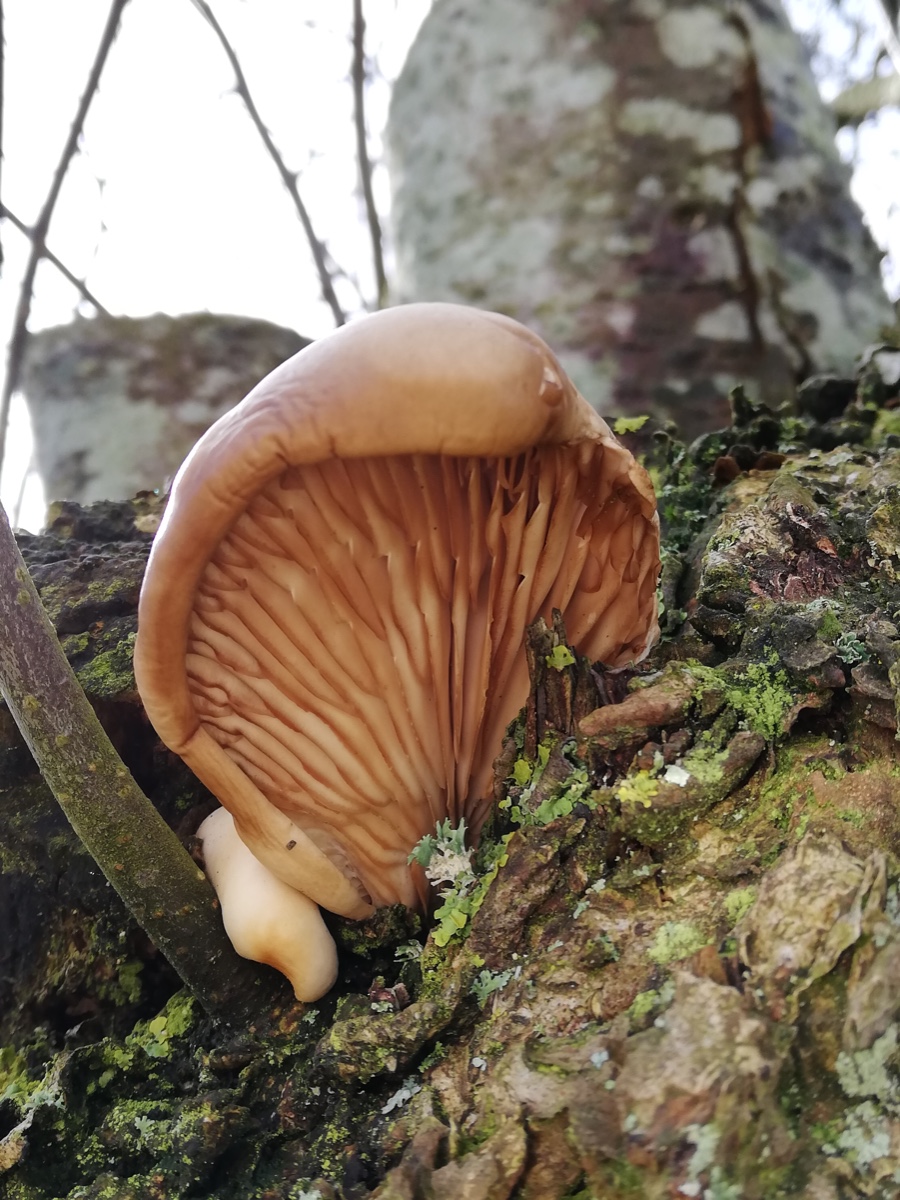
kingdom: Fungi
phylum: Basidiomycota
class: Agaricomycetes
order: Agaricales
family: Pleurotaceae
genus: Pleurotus
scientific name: Pleurotus ostreatus
